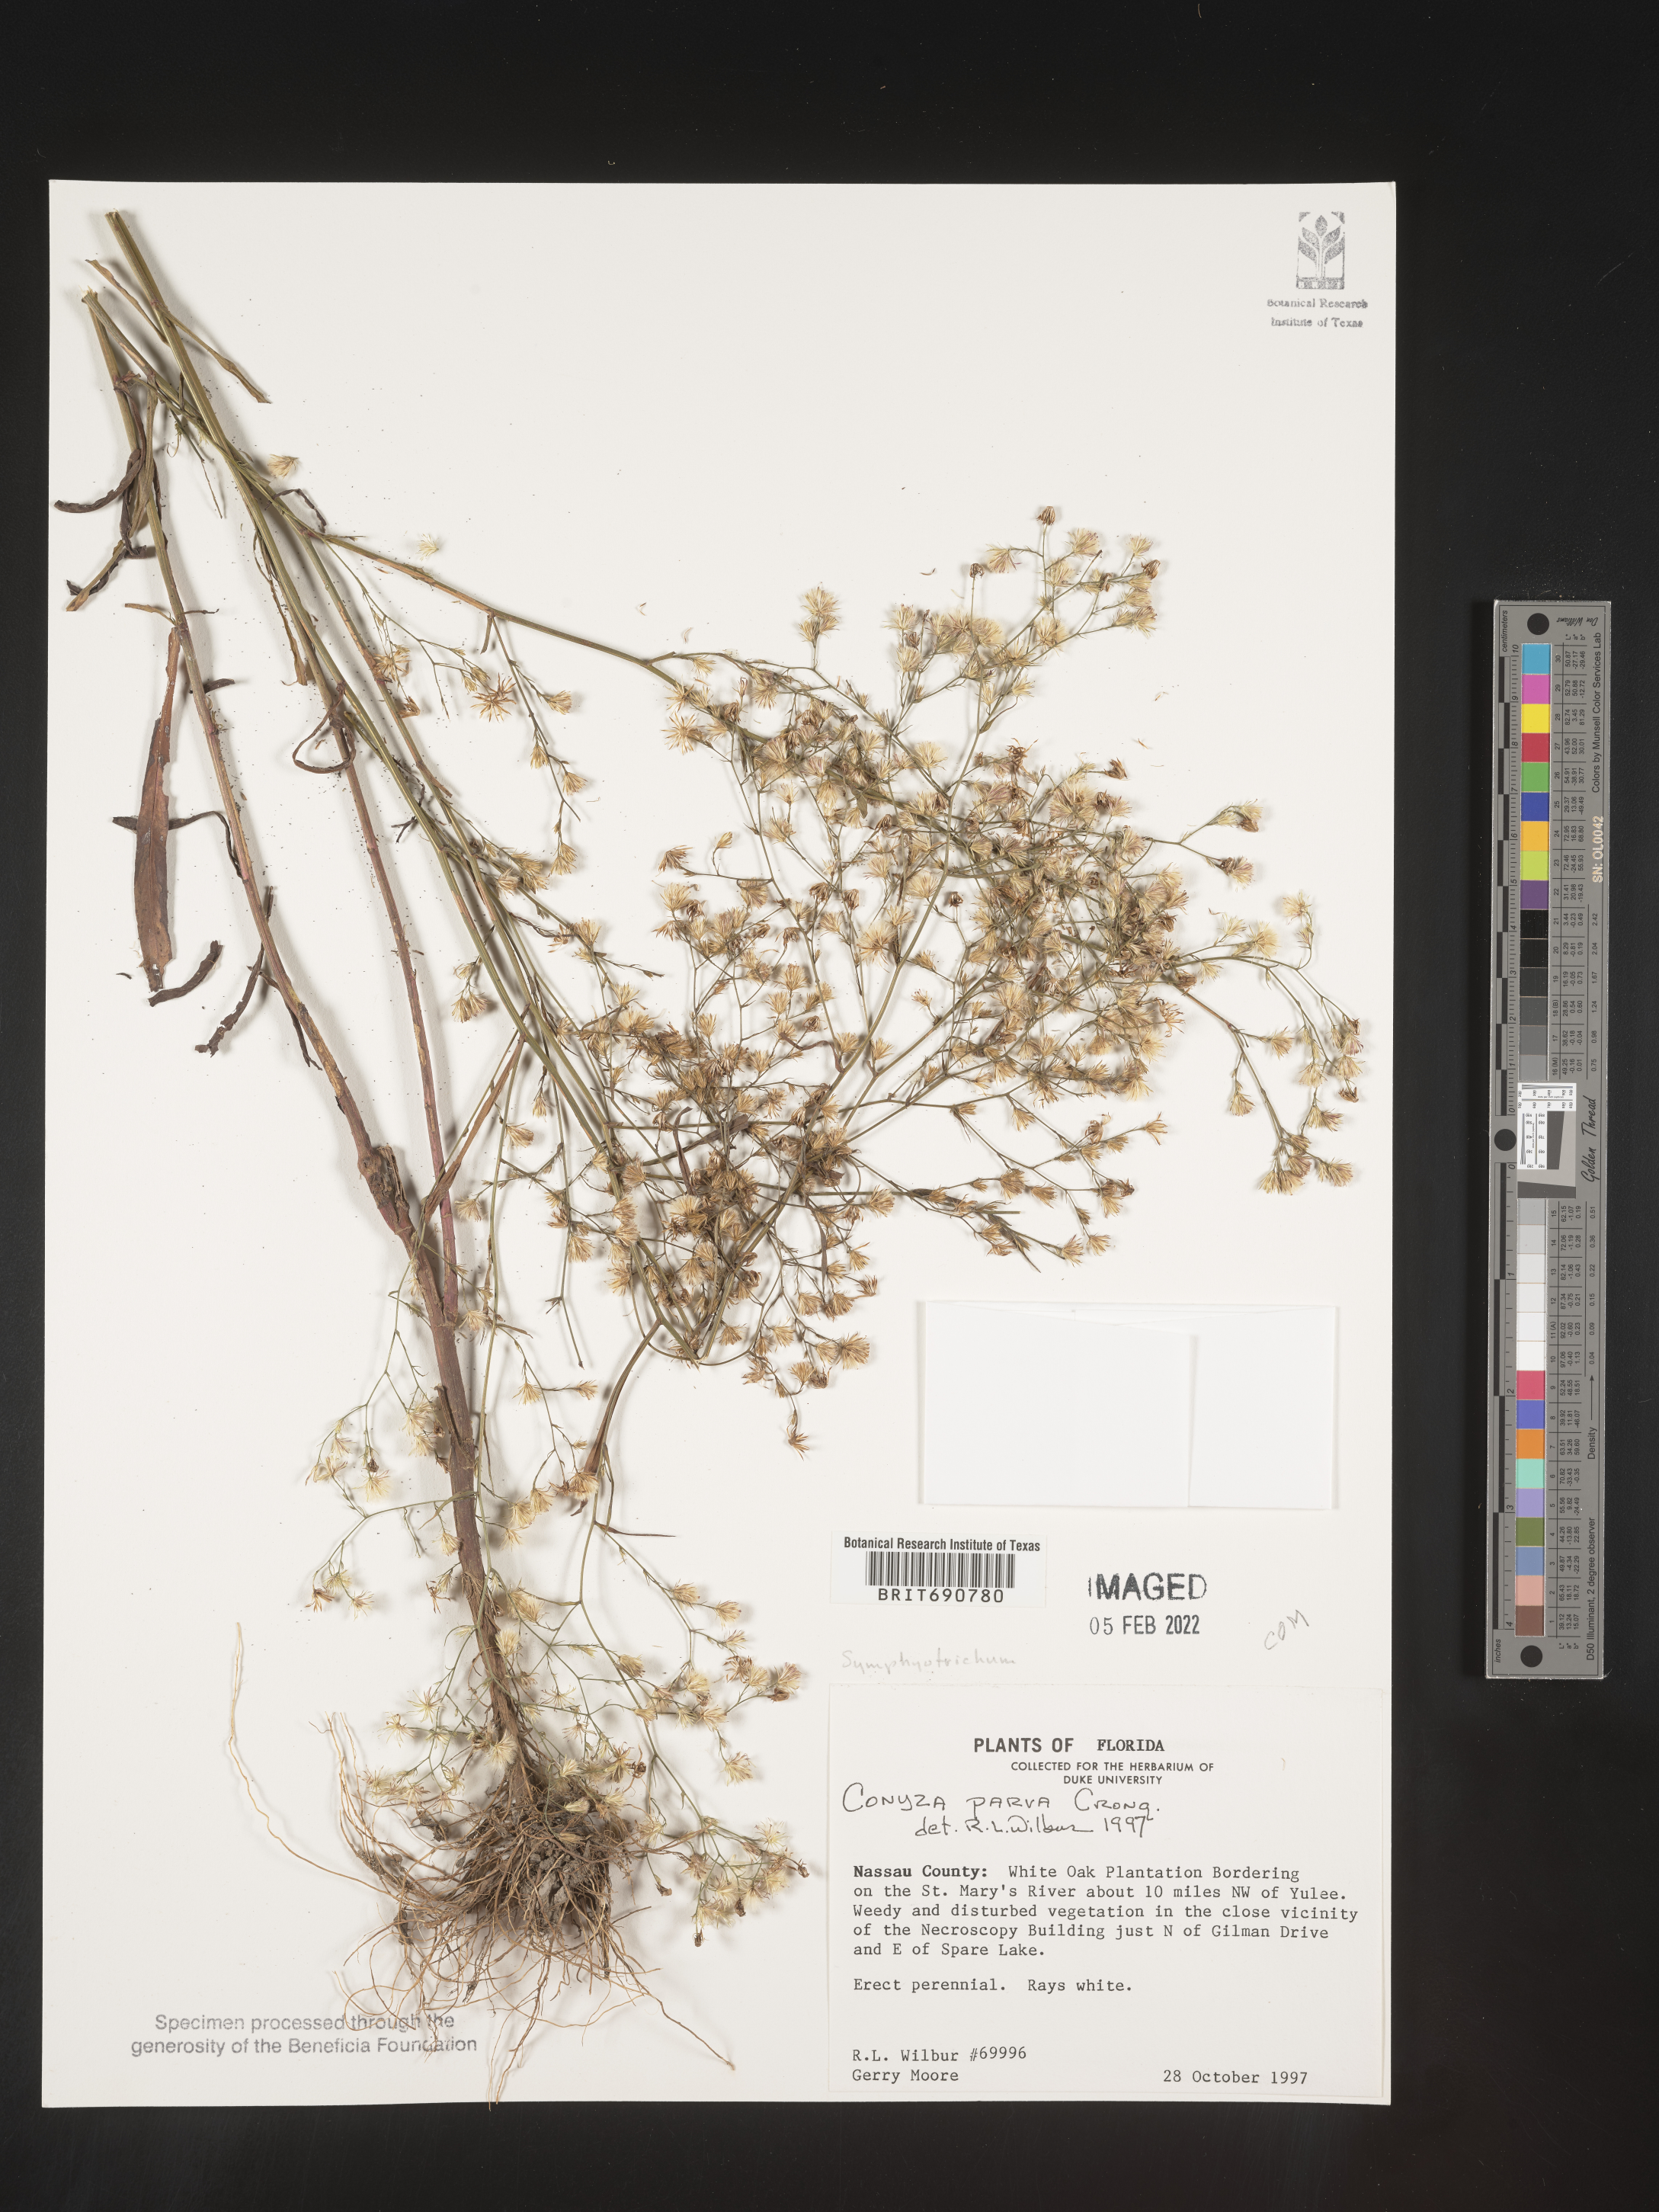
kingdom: Plantae
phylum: Tracheophyta
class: Magnoliopsida
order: Asterales
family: Asteraceae
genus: Erigeron
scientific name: Erigeron canadensis
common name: Canadian fleabane
